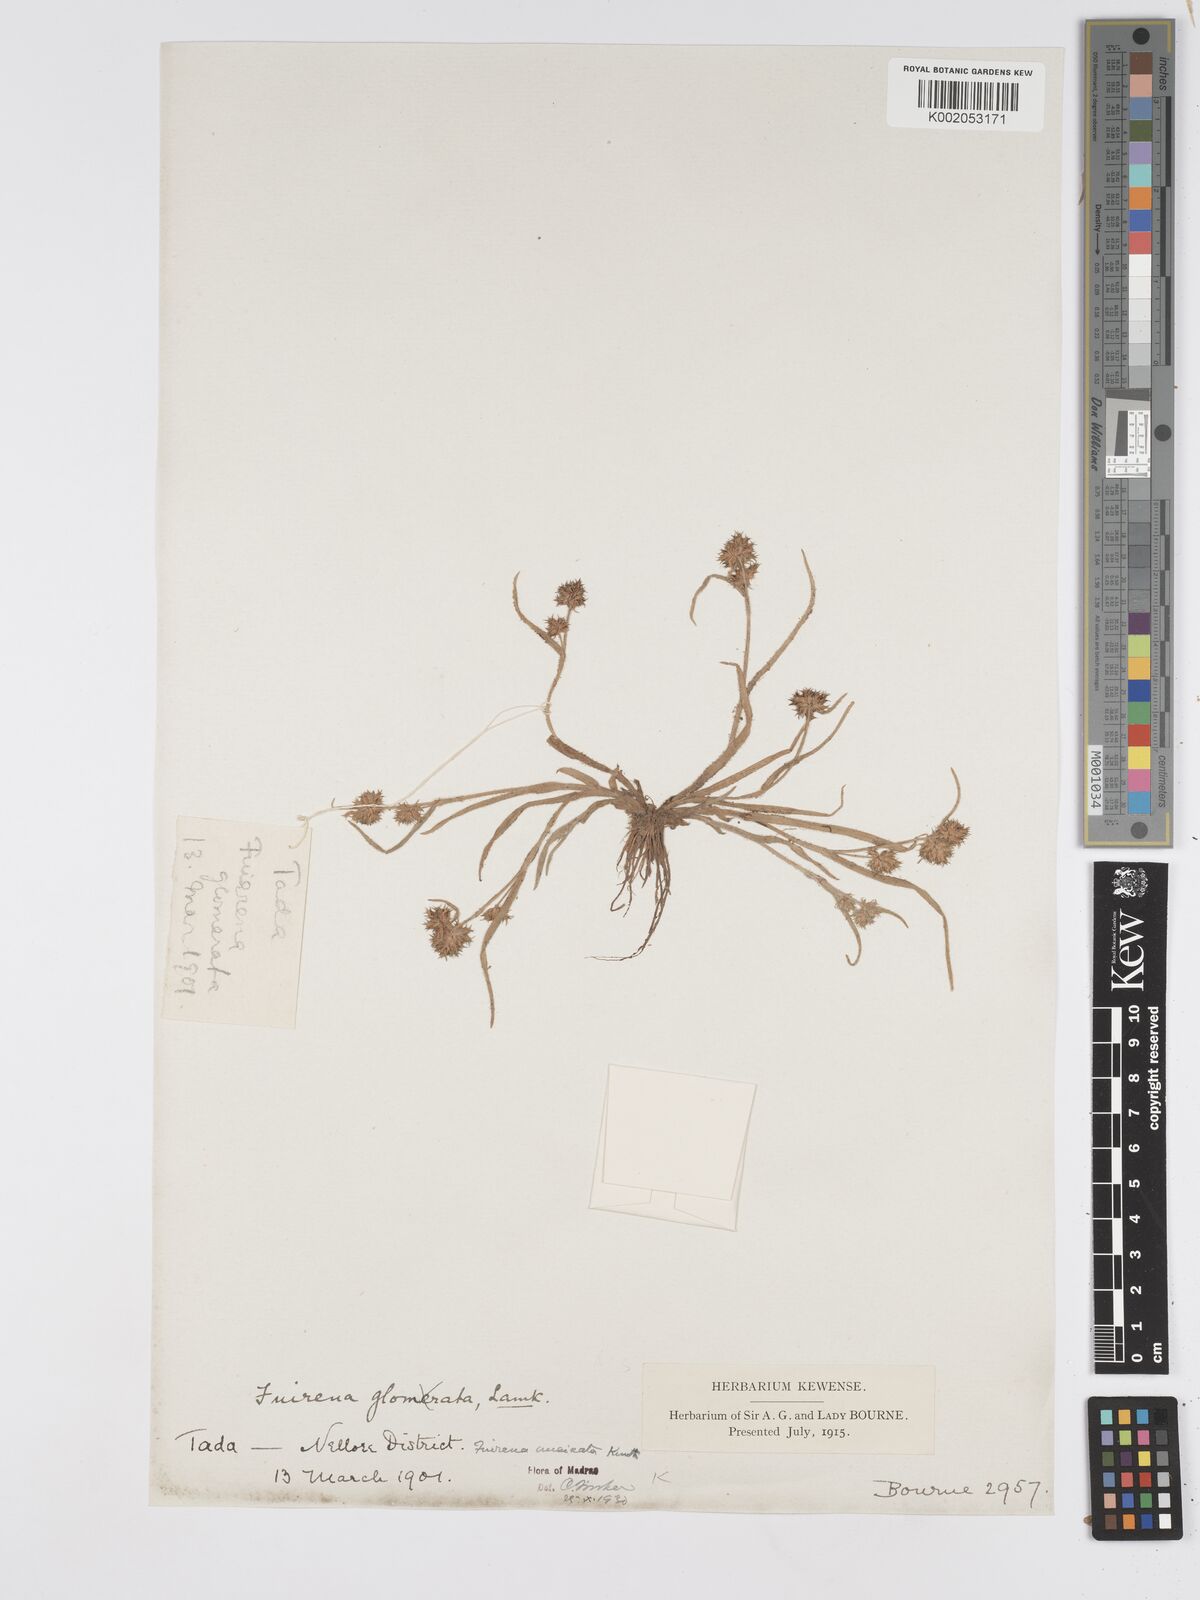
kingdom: Plantae
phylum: Tracheophyta
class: Liliopsida
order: Poales
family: Cyperaceae
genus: Fuirena
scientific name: Fuirena uncinata
